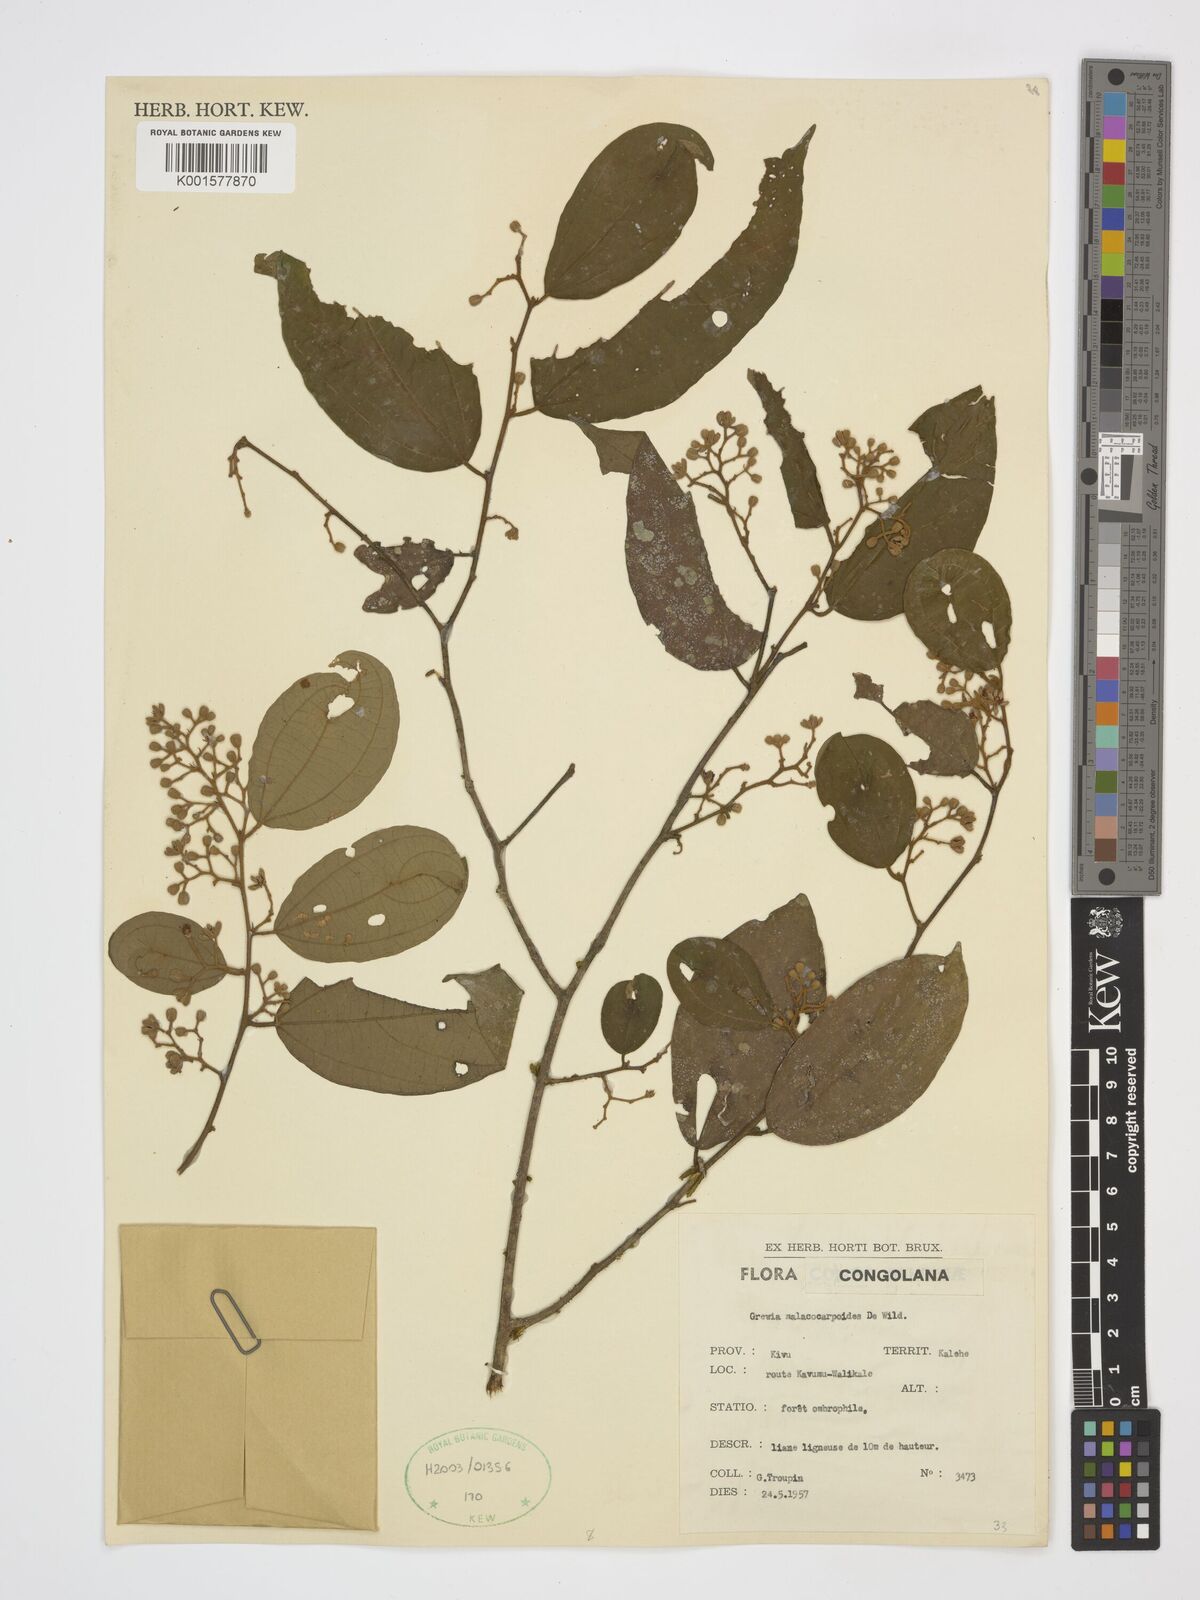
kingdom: Plantae
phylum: Tracheophyta
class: Magnoliopsida
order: Malvales
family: Malvaceae
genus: Microcos
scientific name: Microcos malacocarpa
